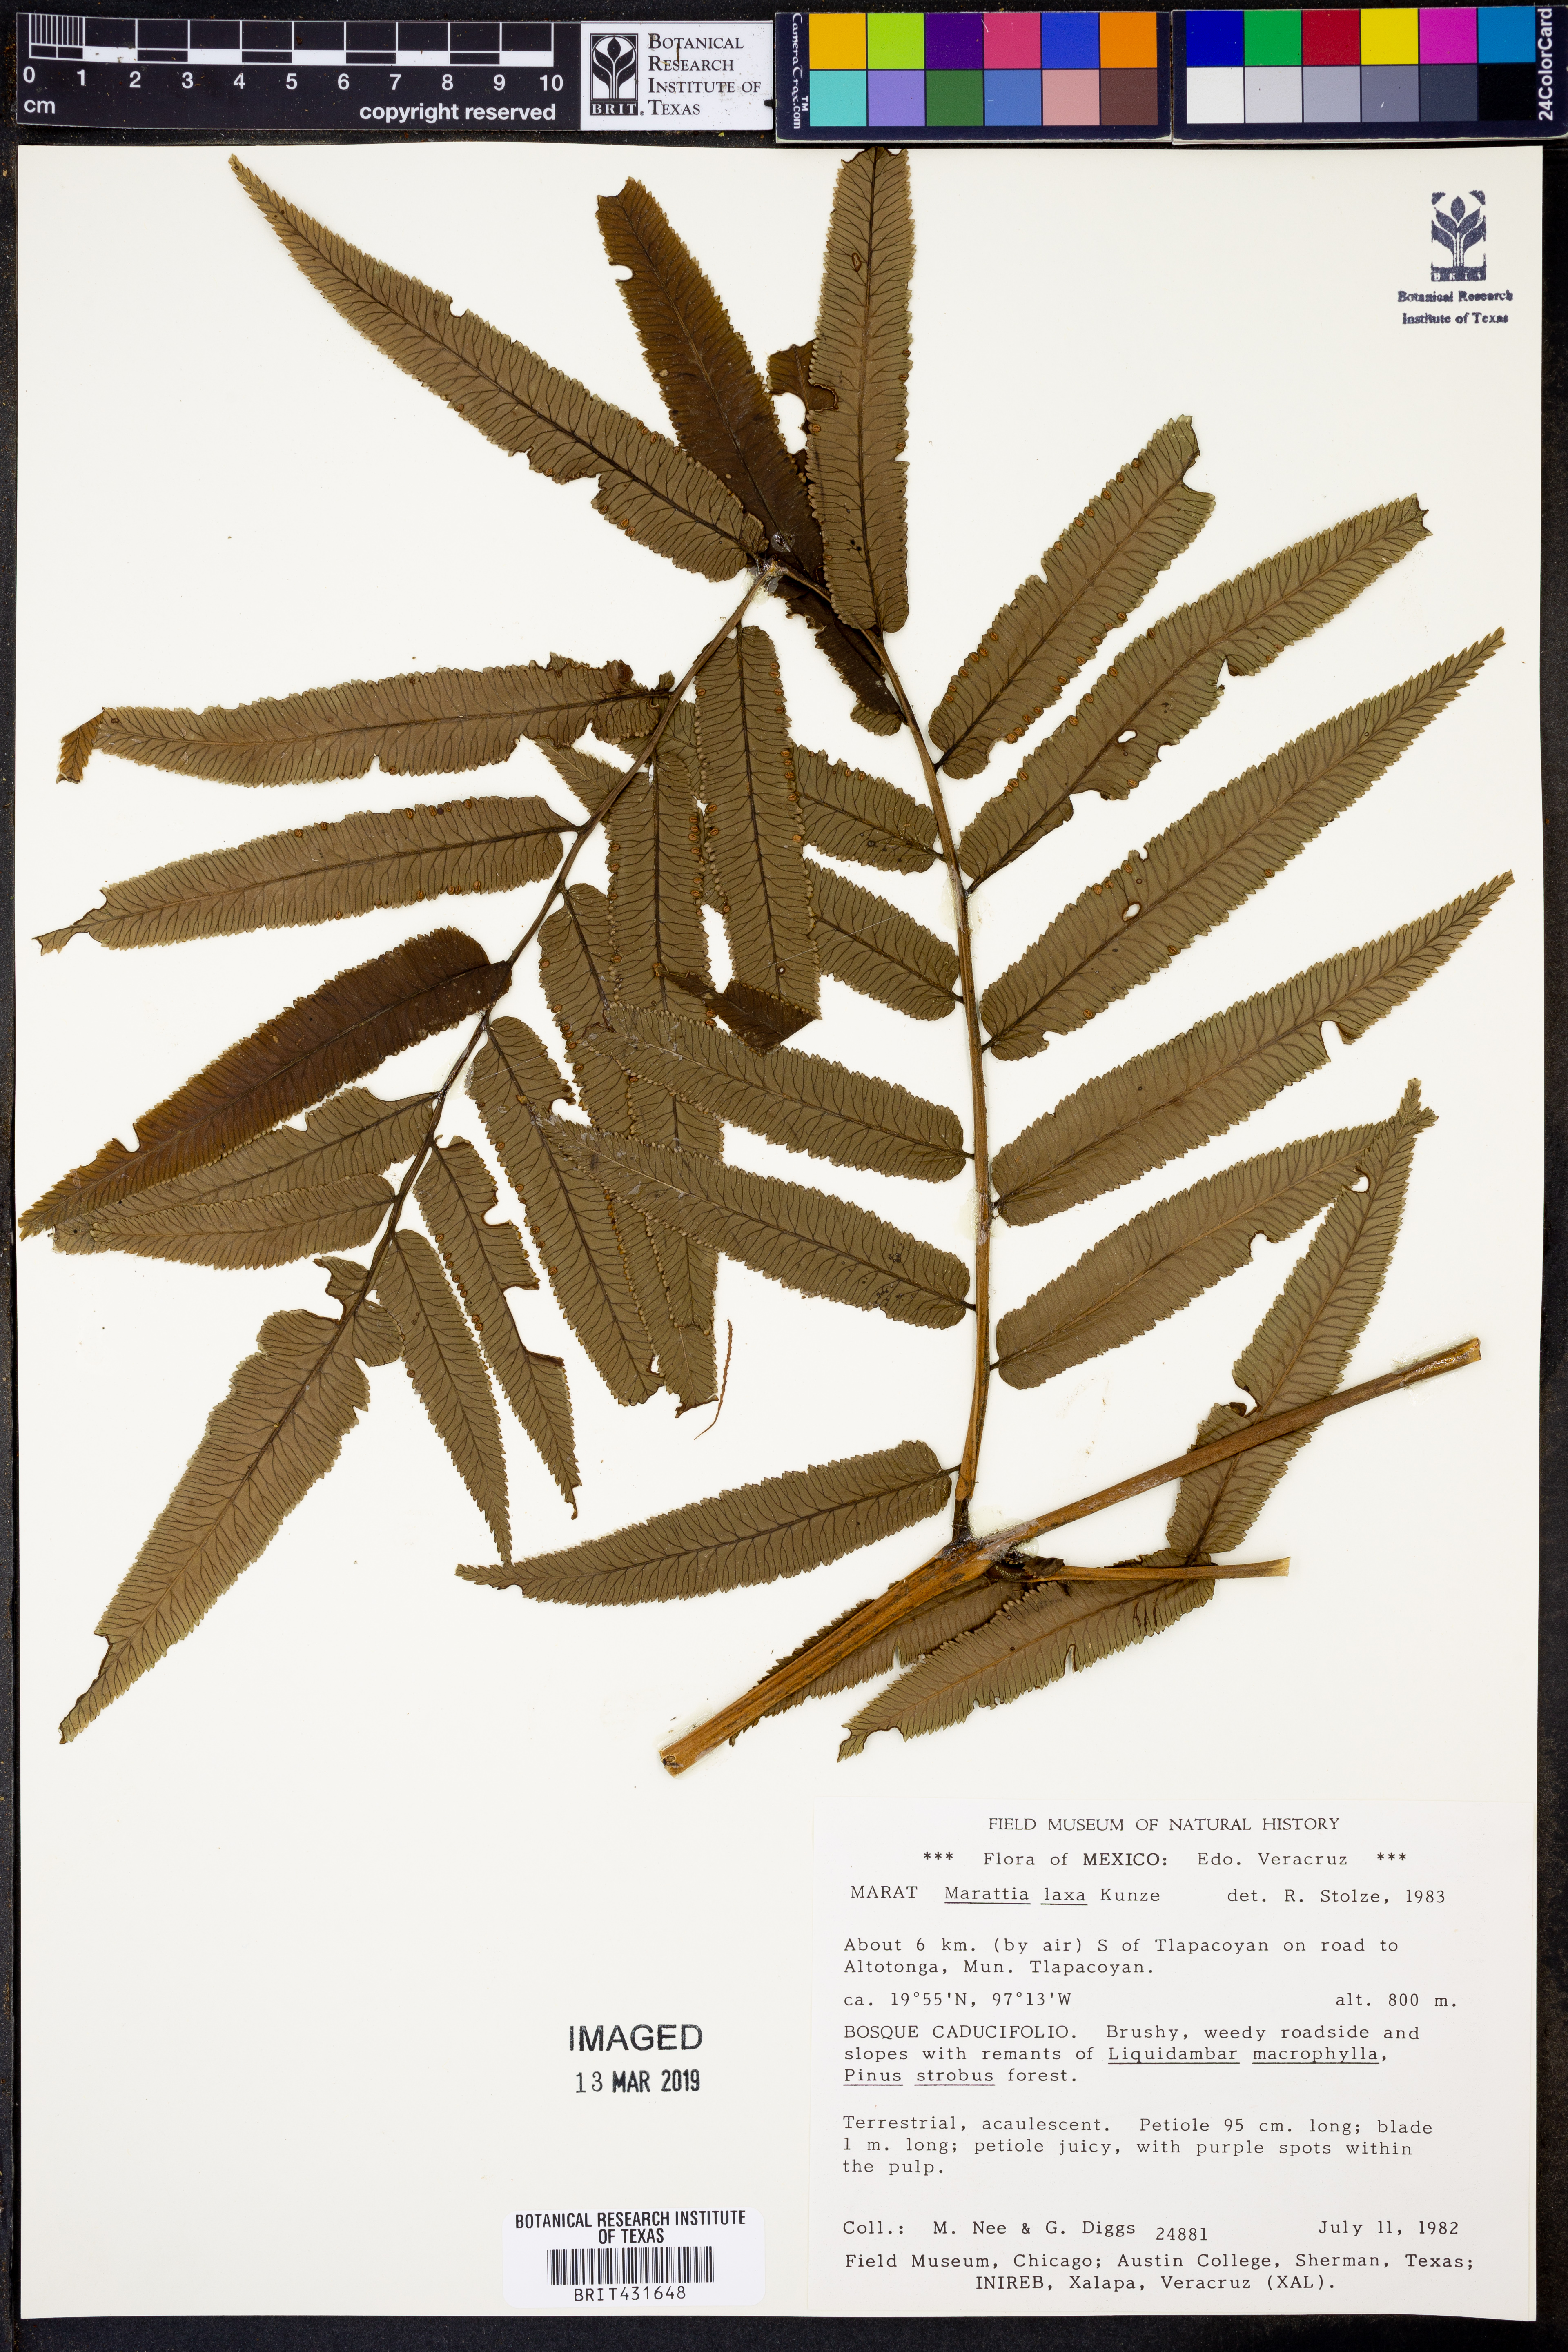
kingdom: Plantae
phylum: Tracheophyta
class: Polypodiopsida
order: Marattiales
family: Marattiaceae
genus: Marattia
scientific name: Marattia laxa
